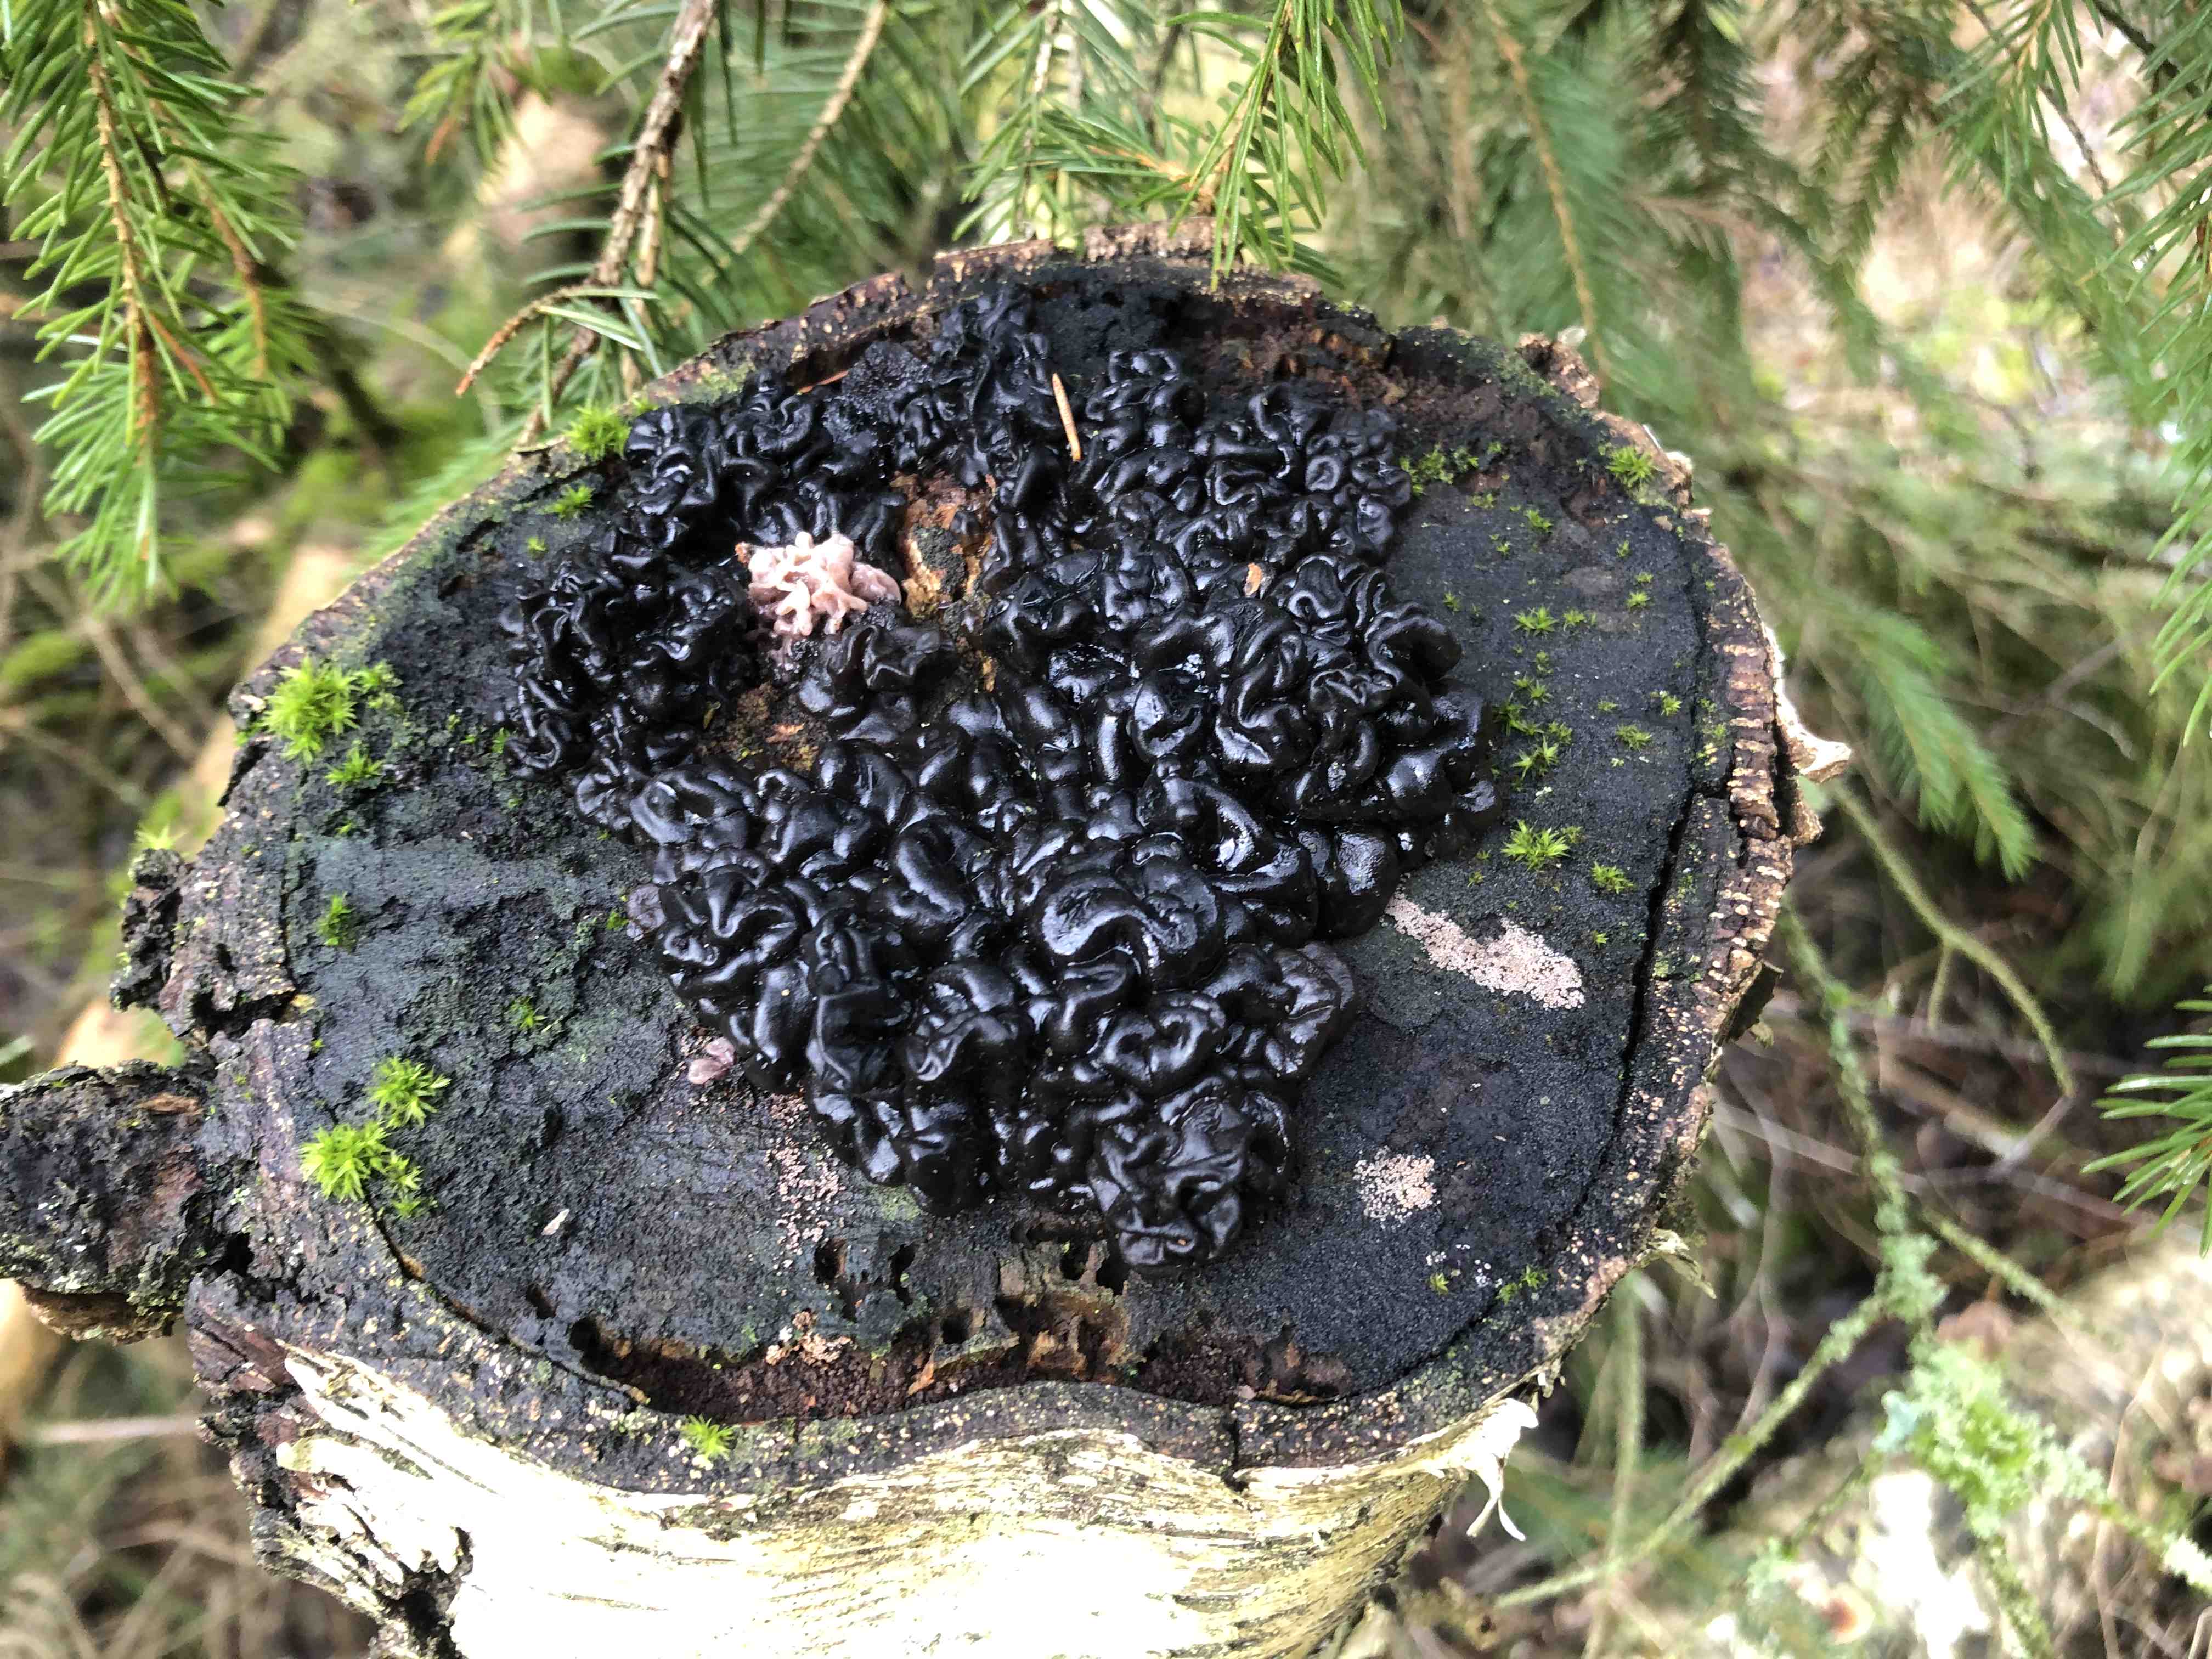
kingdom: Fungi
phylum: Basidiomycota
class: Agaricomycetes
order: Auriculariales
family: Auriculariaceae
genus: Exidia
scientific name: Exidia nigricans
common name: almindelig bævretop
